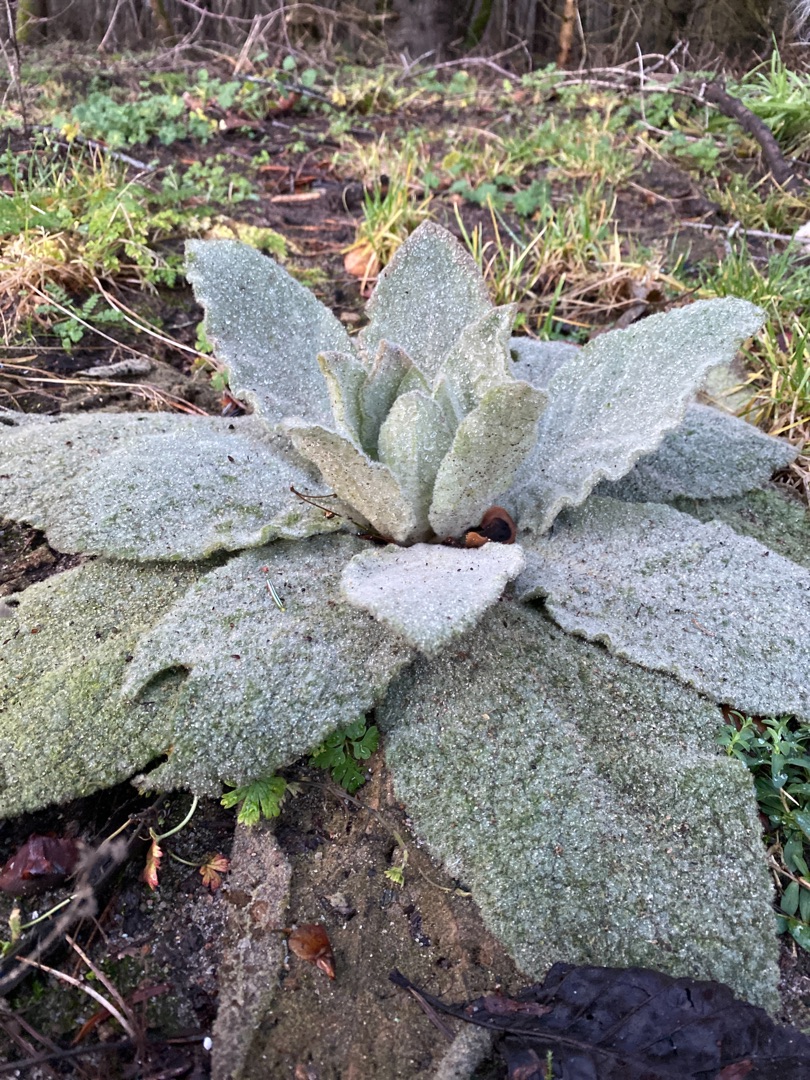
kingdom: Plantae
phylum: Tracheophyta
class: Magnoliopsida
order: Lamiales
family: Scrophulariaceae
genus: Verbascum
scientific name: Verbascum thapsus
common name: Filtbladet kongelys
